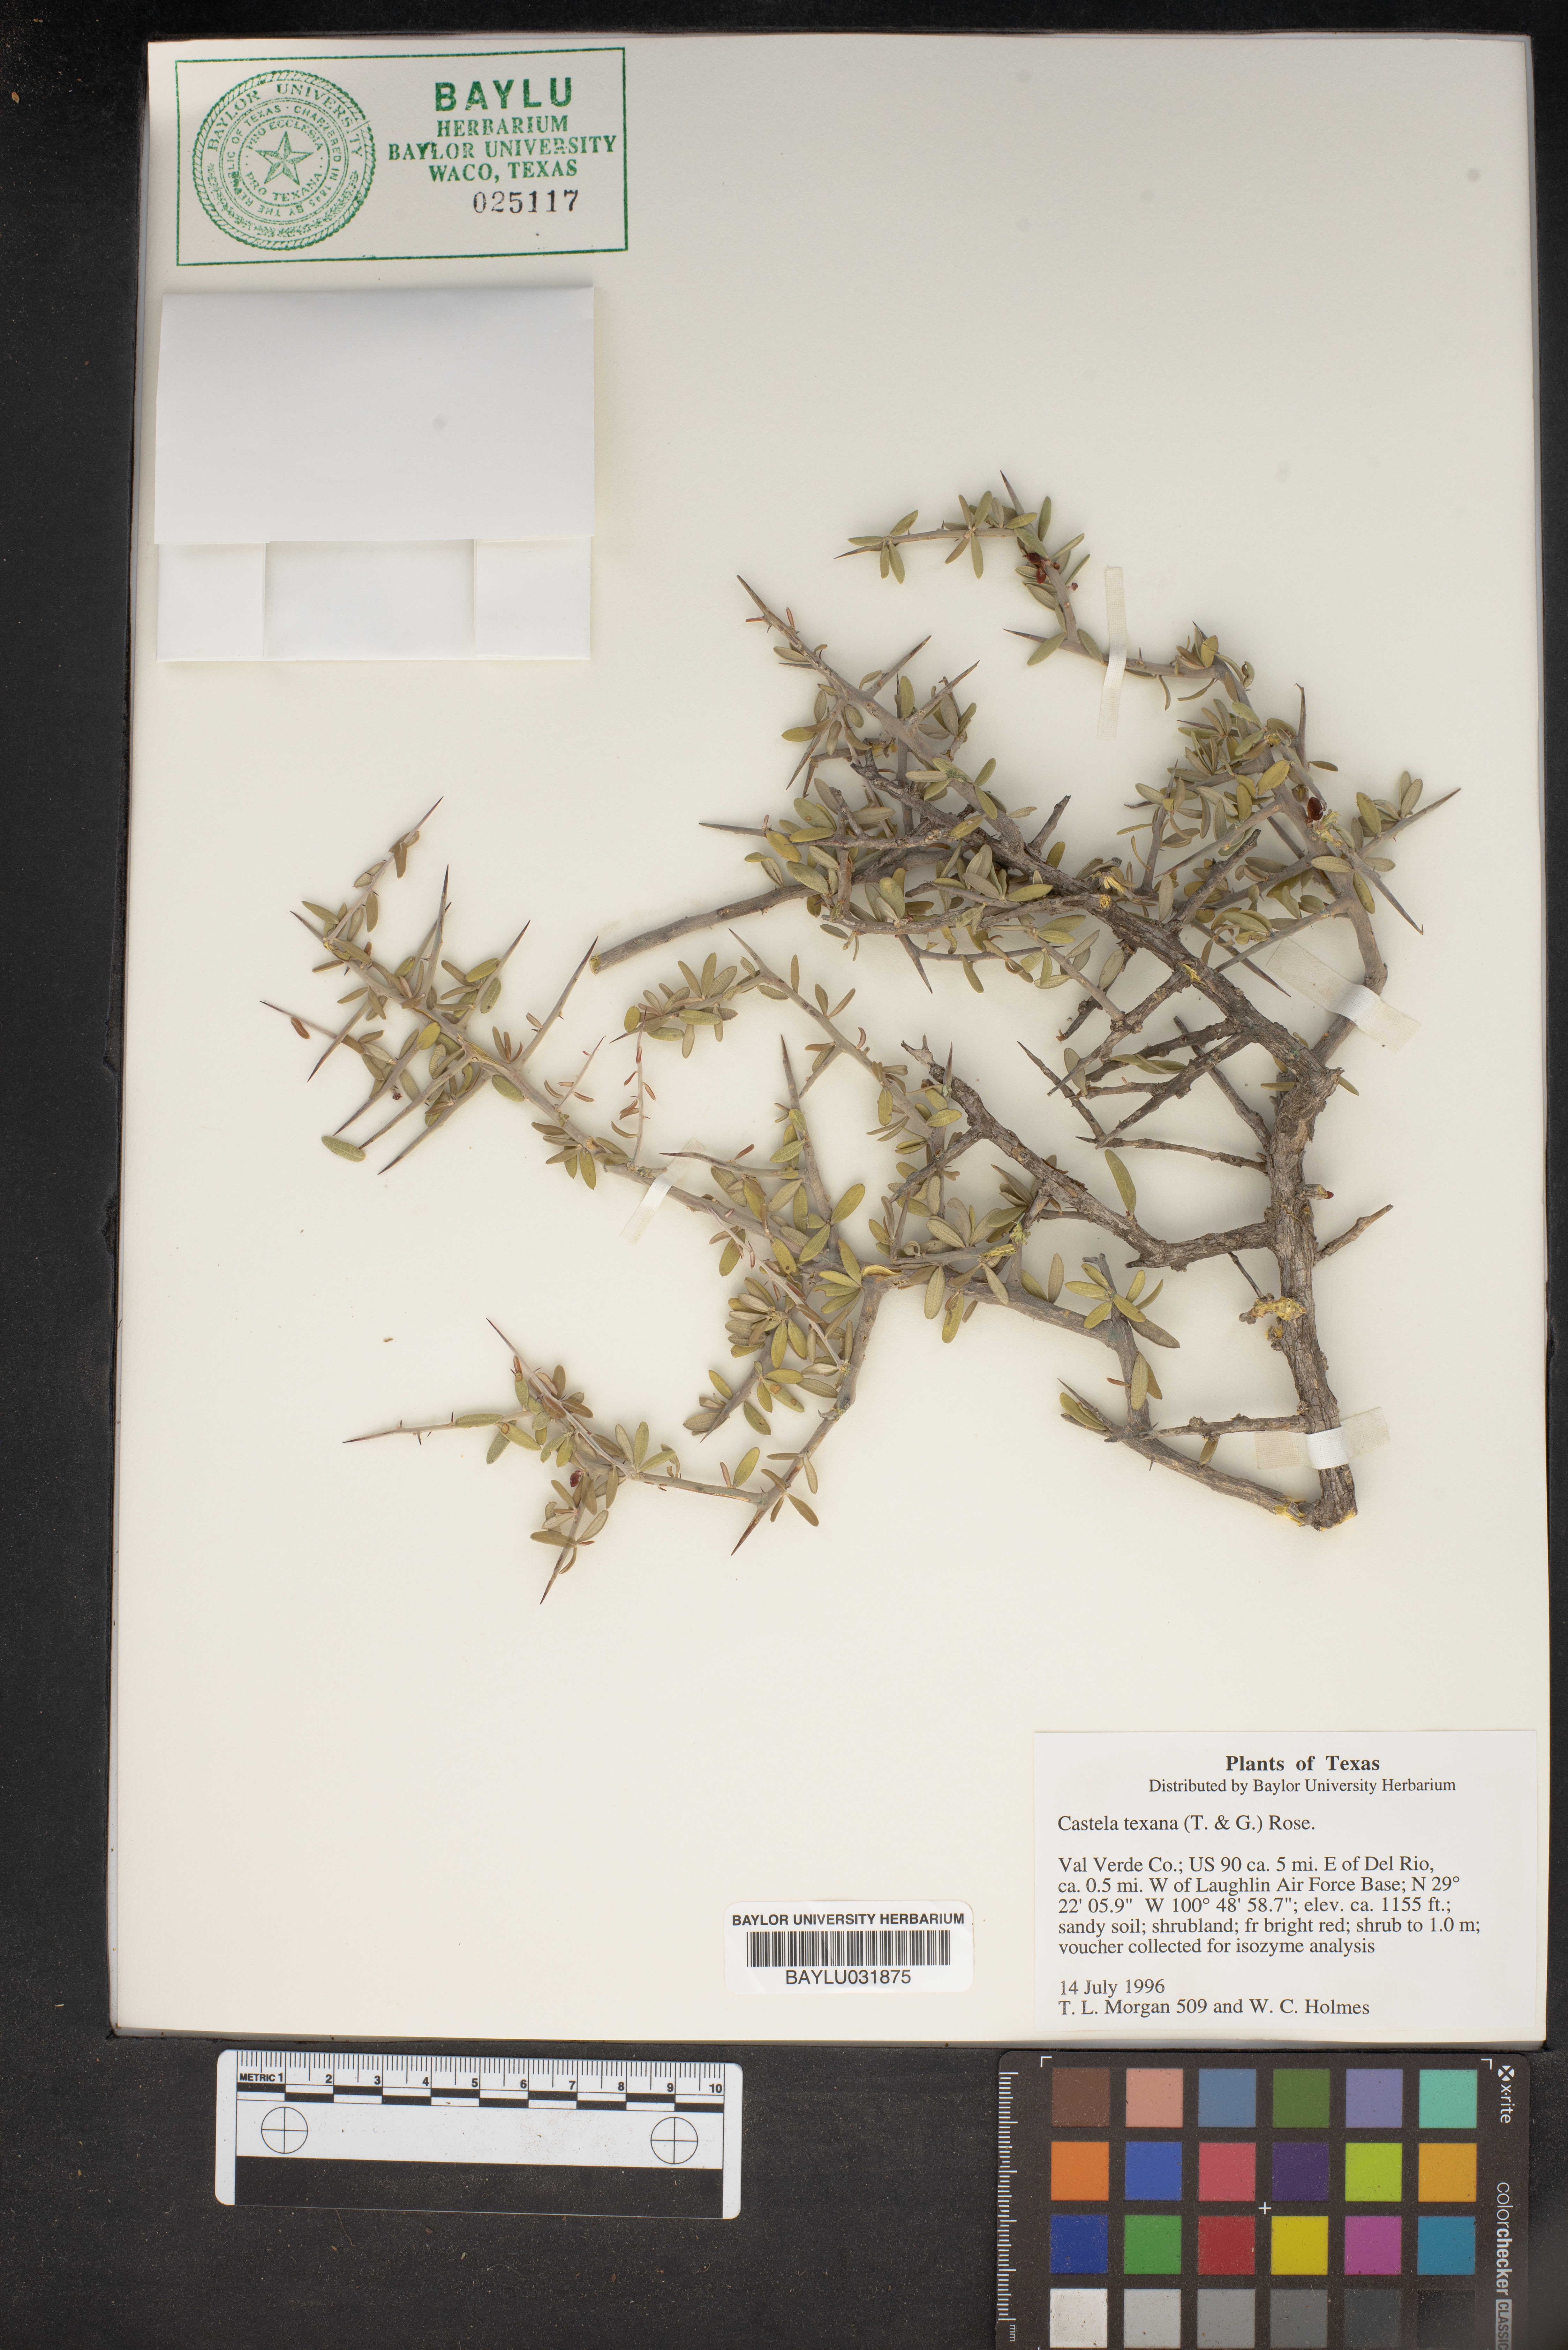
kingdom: Plantae
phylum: Tracheophyta
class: Magnoliopsida
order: Sapindales
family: Simaroubaceae
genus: Castela
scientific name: Castela tortuosa
